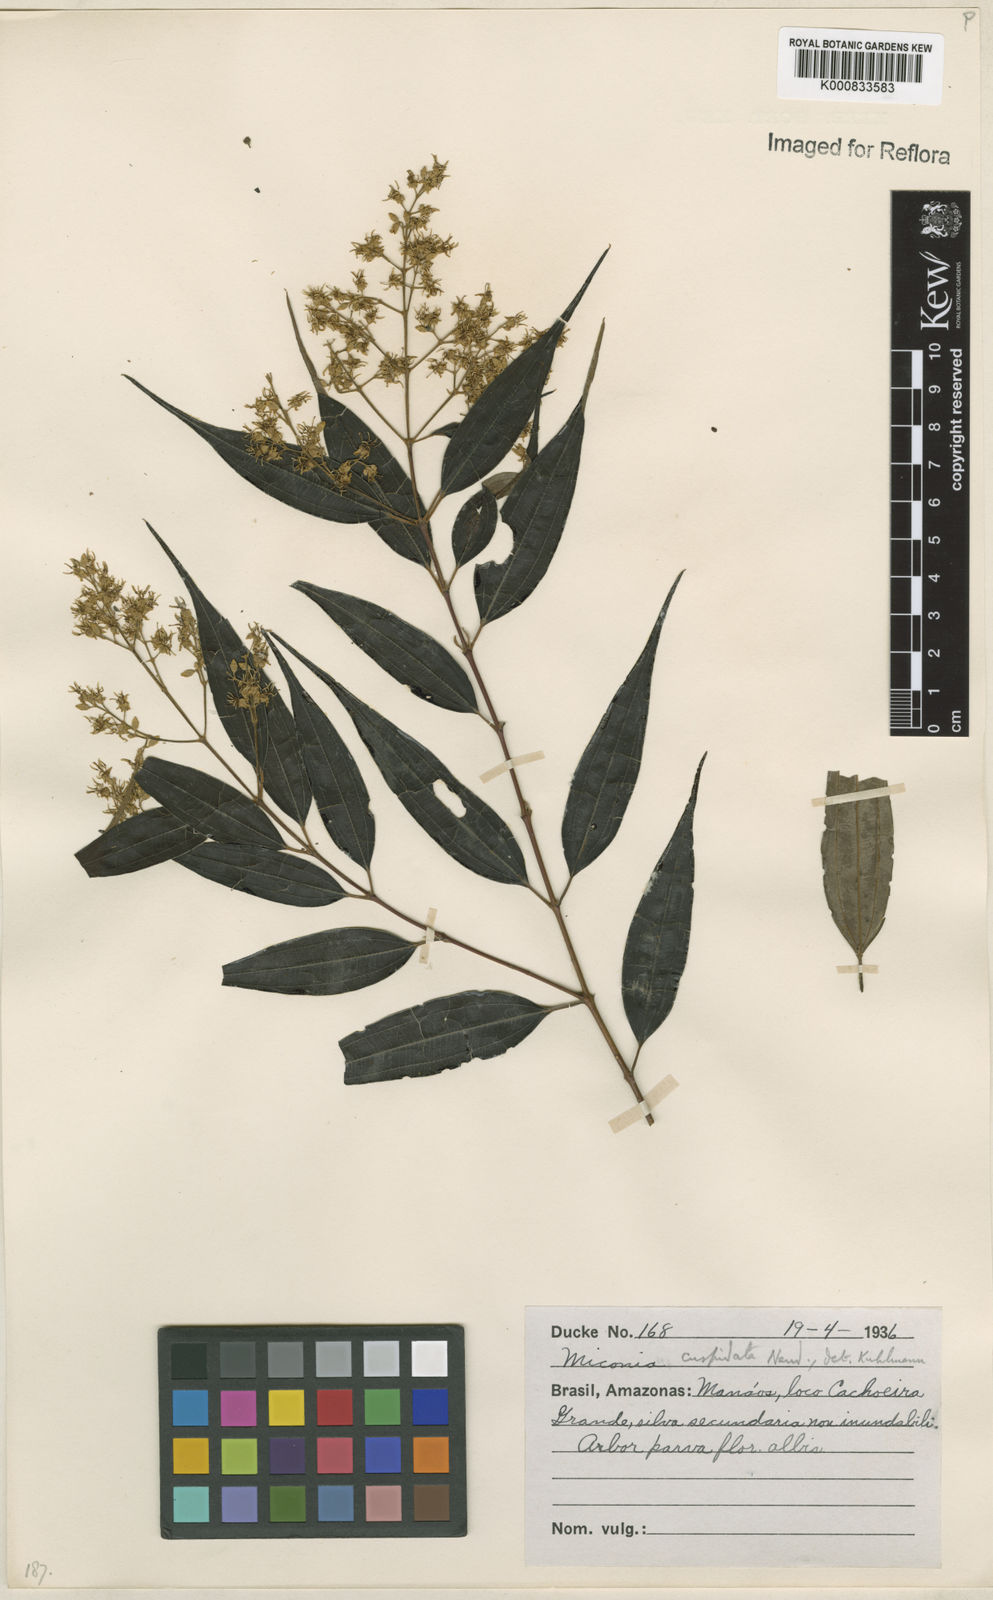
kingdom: Plantae
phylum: Tracheophyta
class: Magnoliopsida
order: Myrtales
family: Melastomataceae
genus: Miconia
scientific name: Miconia cuspidata
